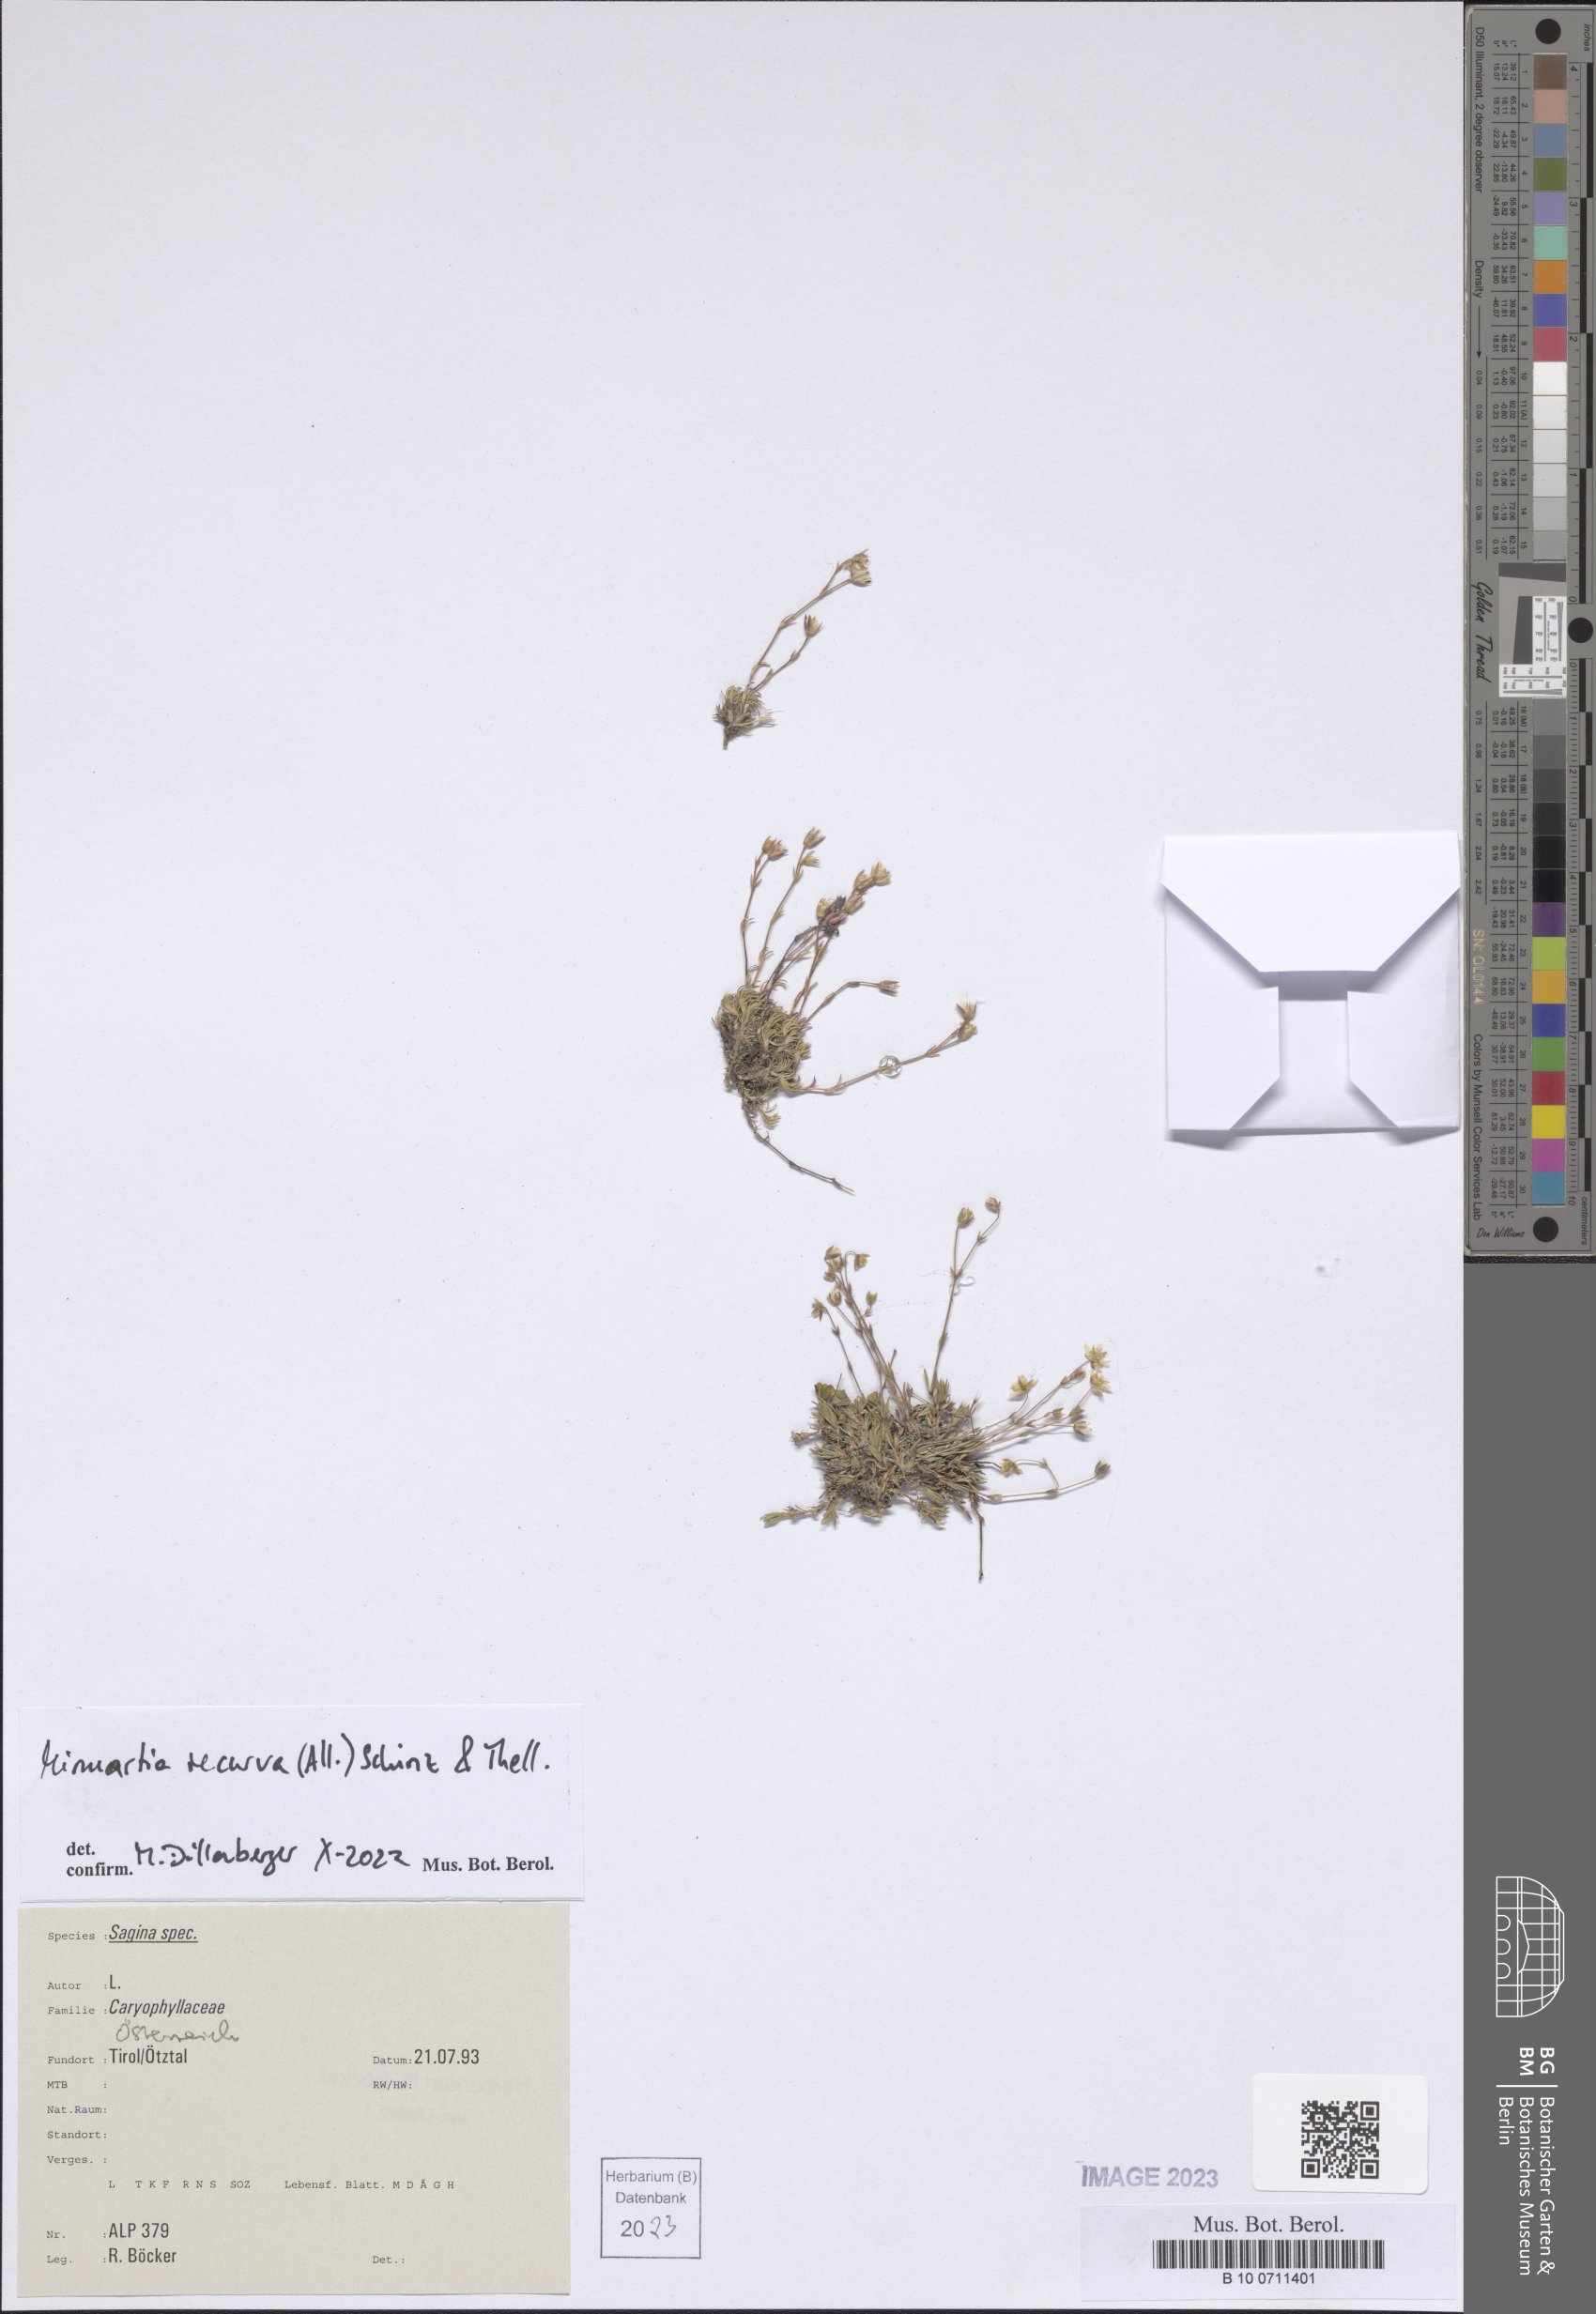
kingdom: Plantae
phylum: Tracheophyta
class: Magnoliopsida
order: Caryophyllales
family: Caryophyllaceae
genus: Minuartia
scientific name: Minuartia recurva
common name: Recurved sandwort
